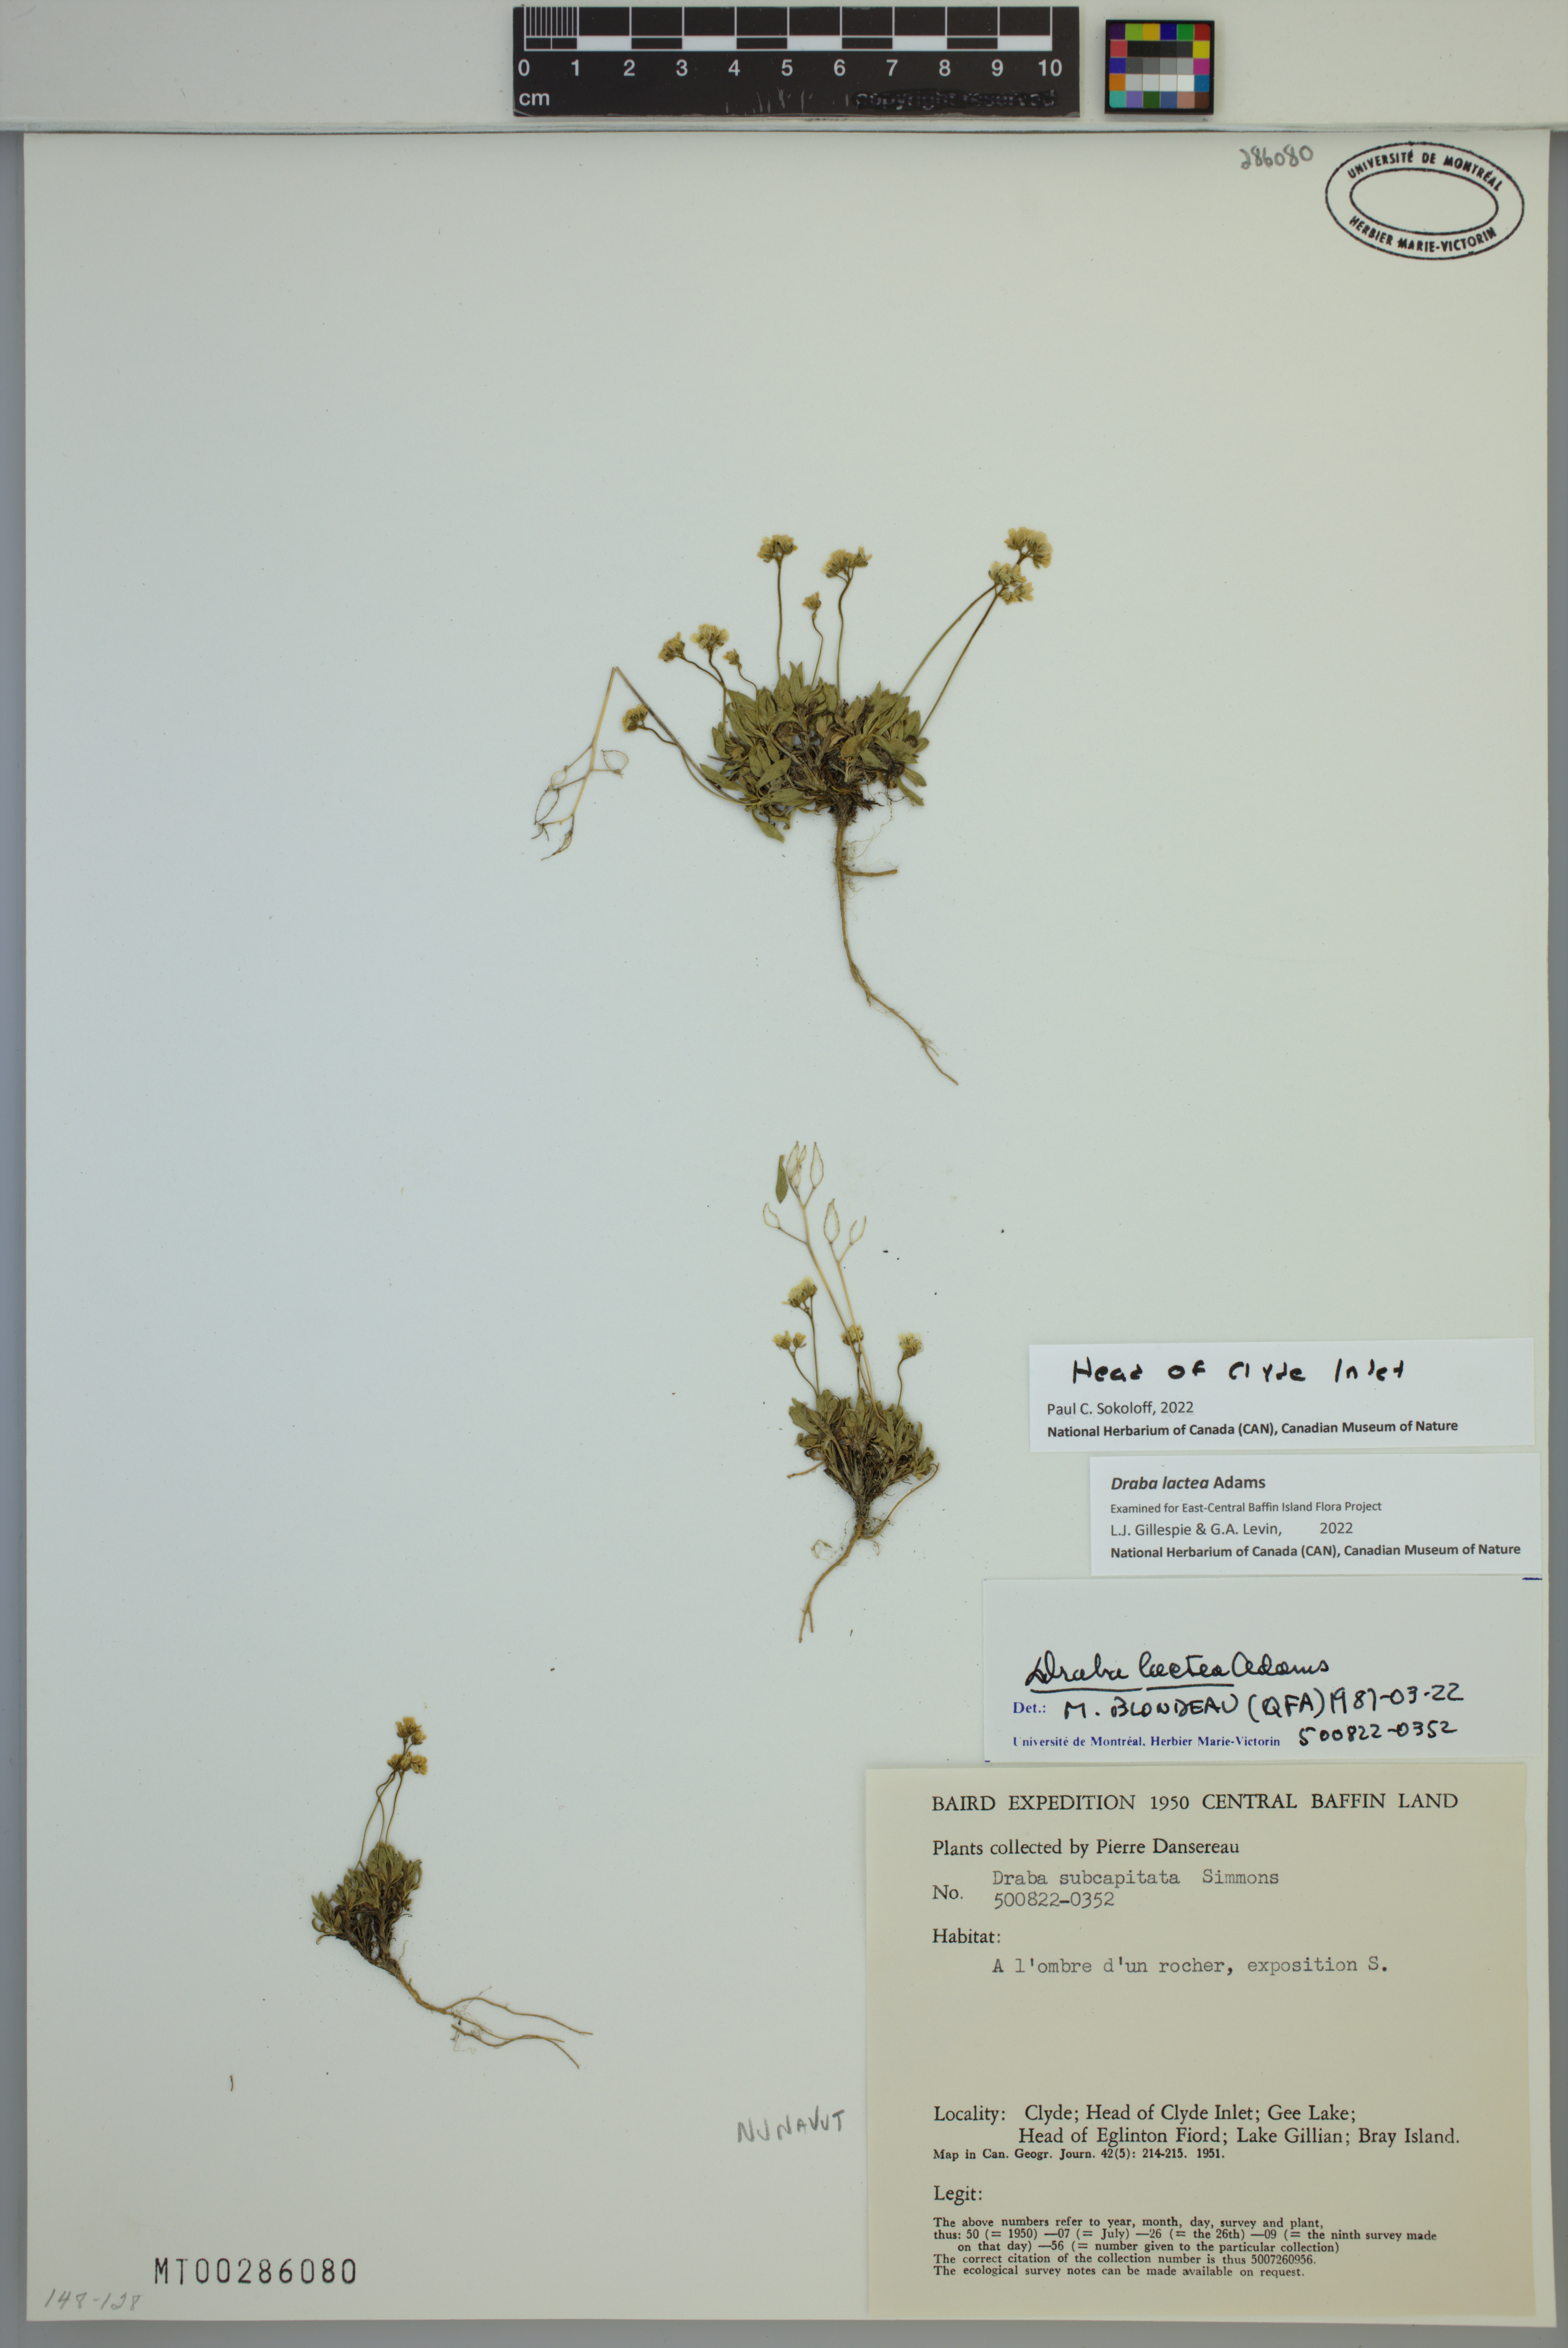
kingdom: Plantae
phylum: Tracheophyta
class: Magnoliopsida
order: Brassicales
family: Brassicaceae
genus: Draba
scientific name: Draba lactea
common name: Milky draba
